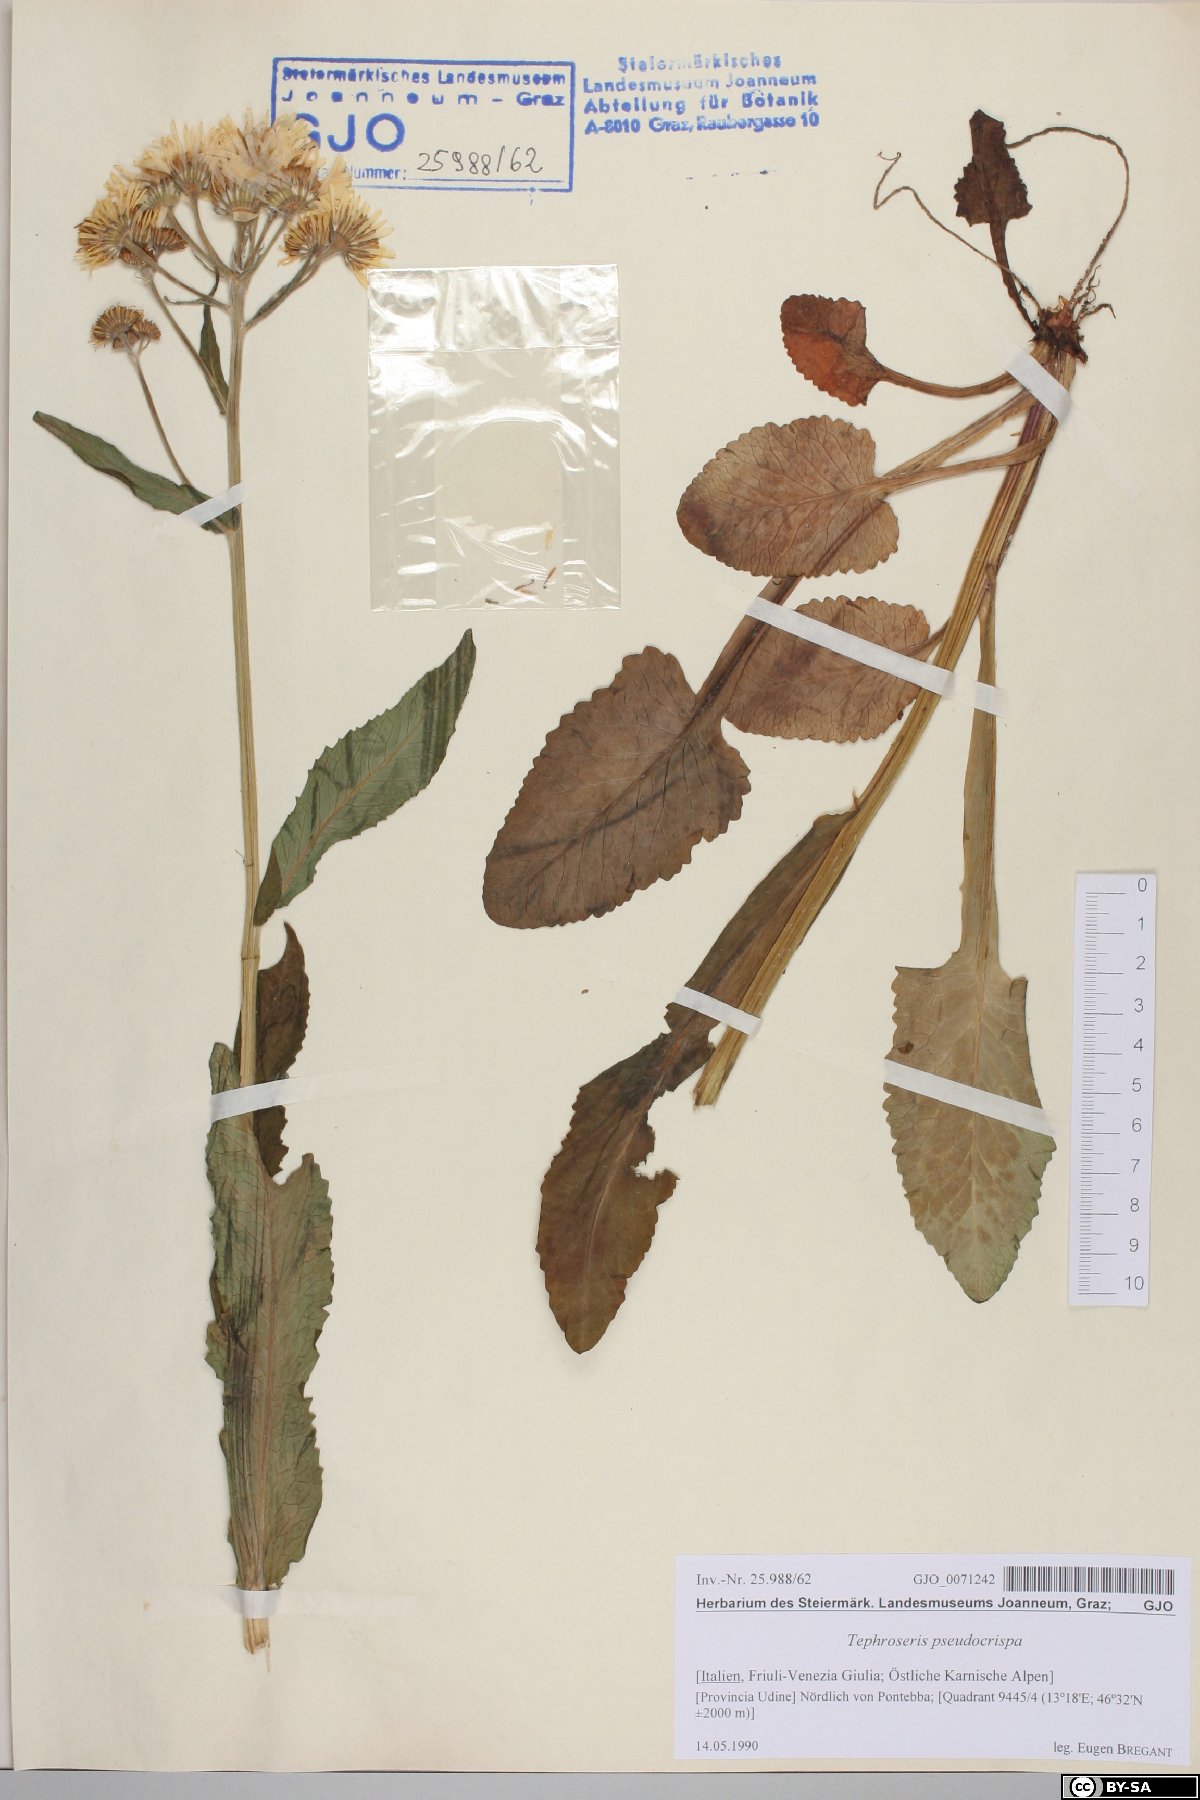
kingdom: Plantae
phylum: Tracheophyta
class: Magnoliopsida
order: Asterales
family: Asteraceae
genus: Tephroseris
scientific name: Tephroseris longifolia
